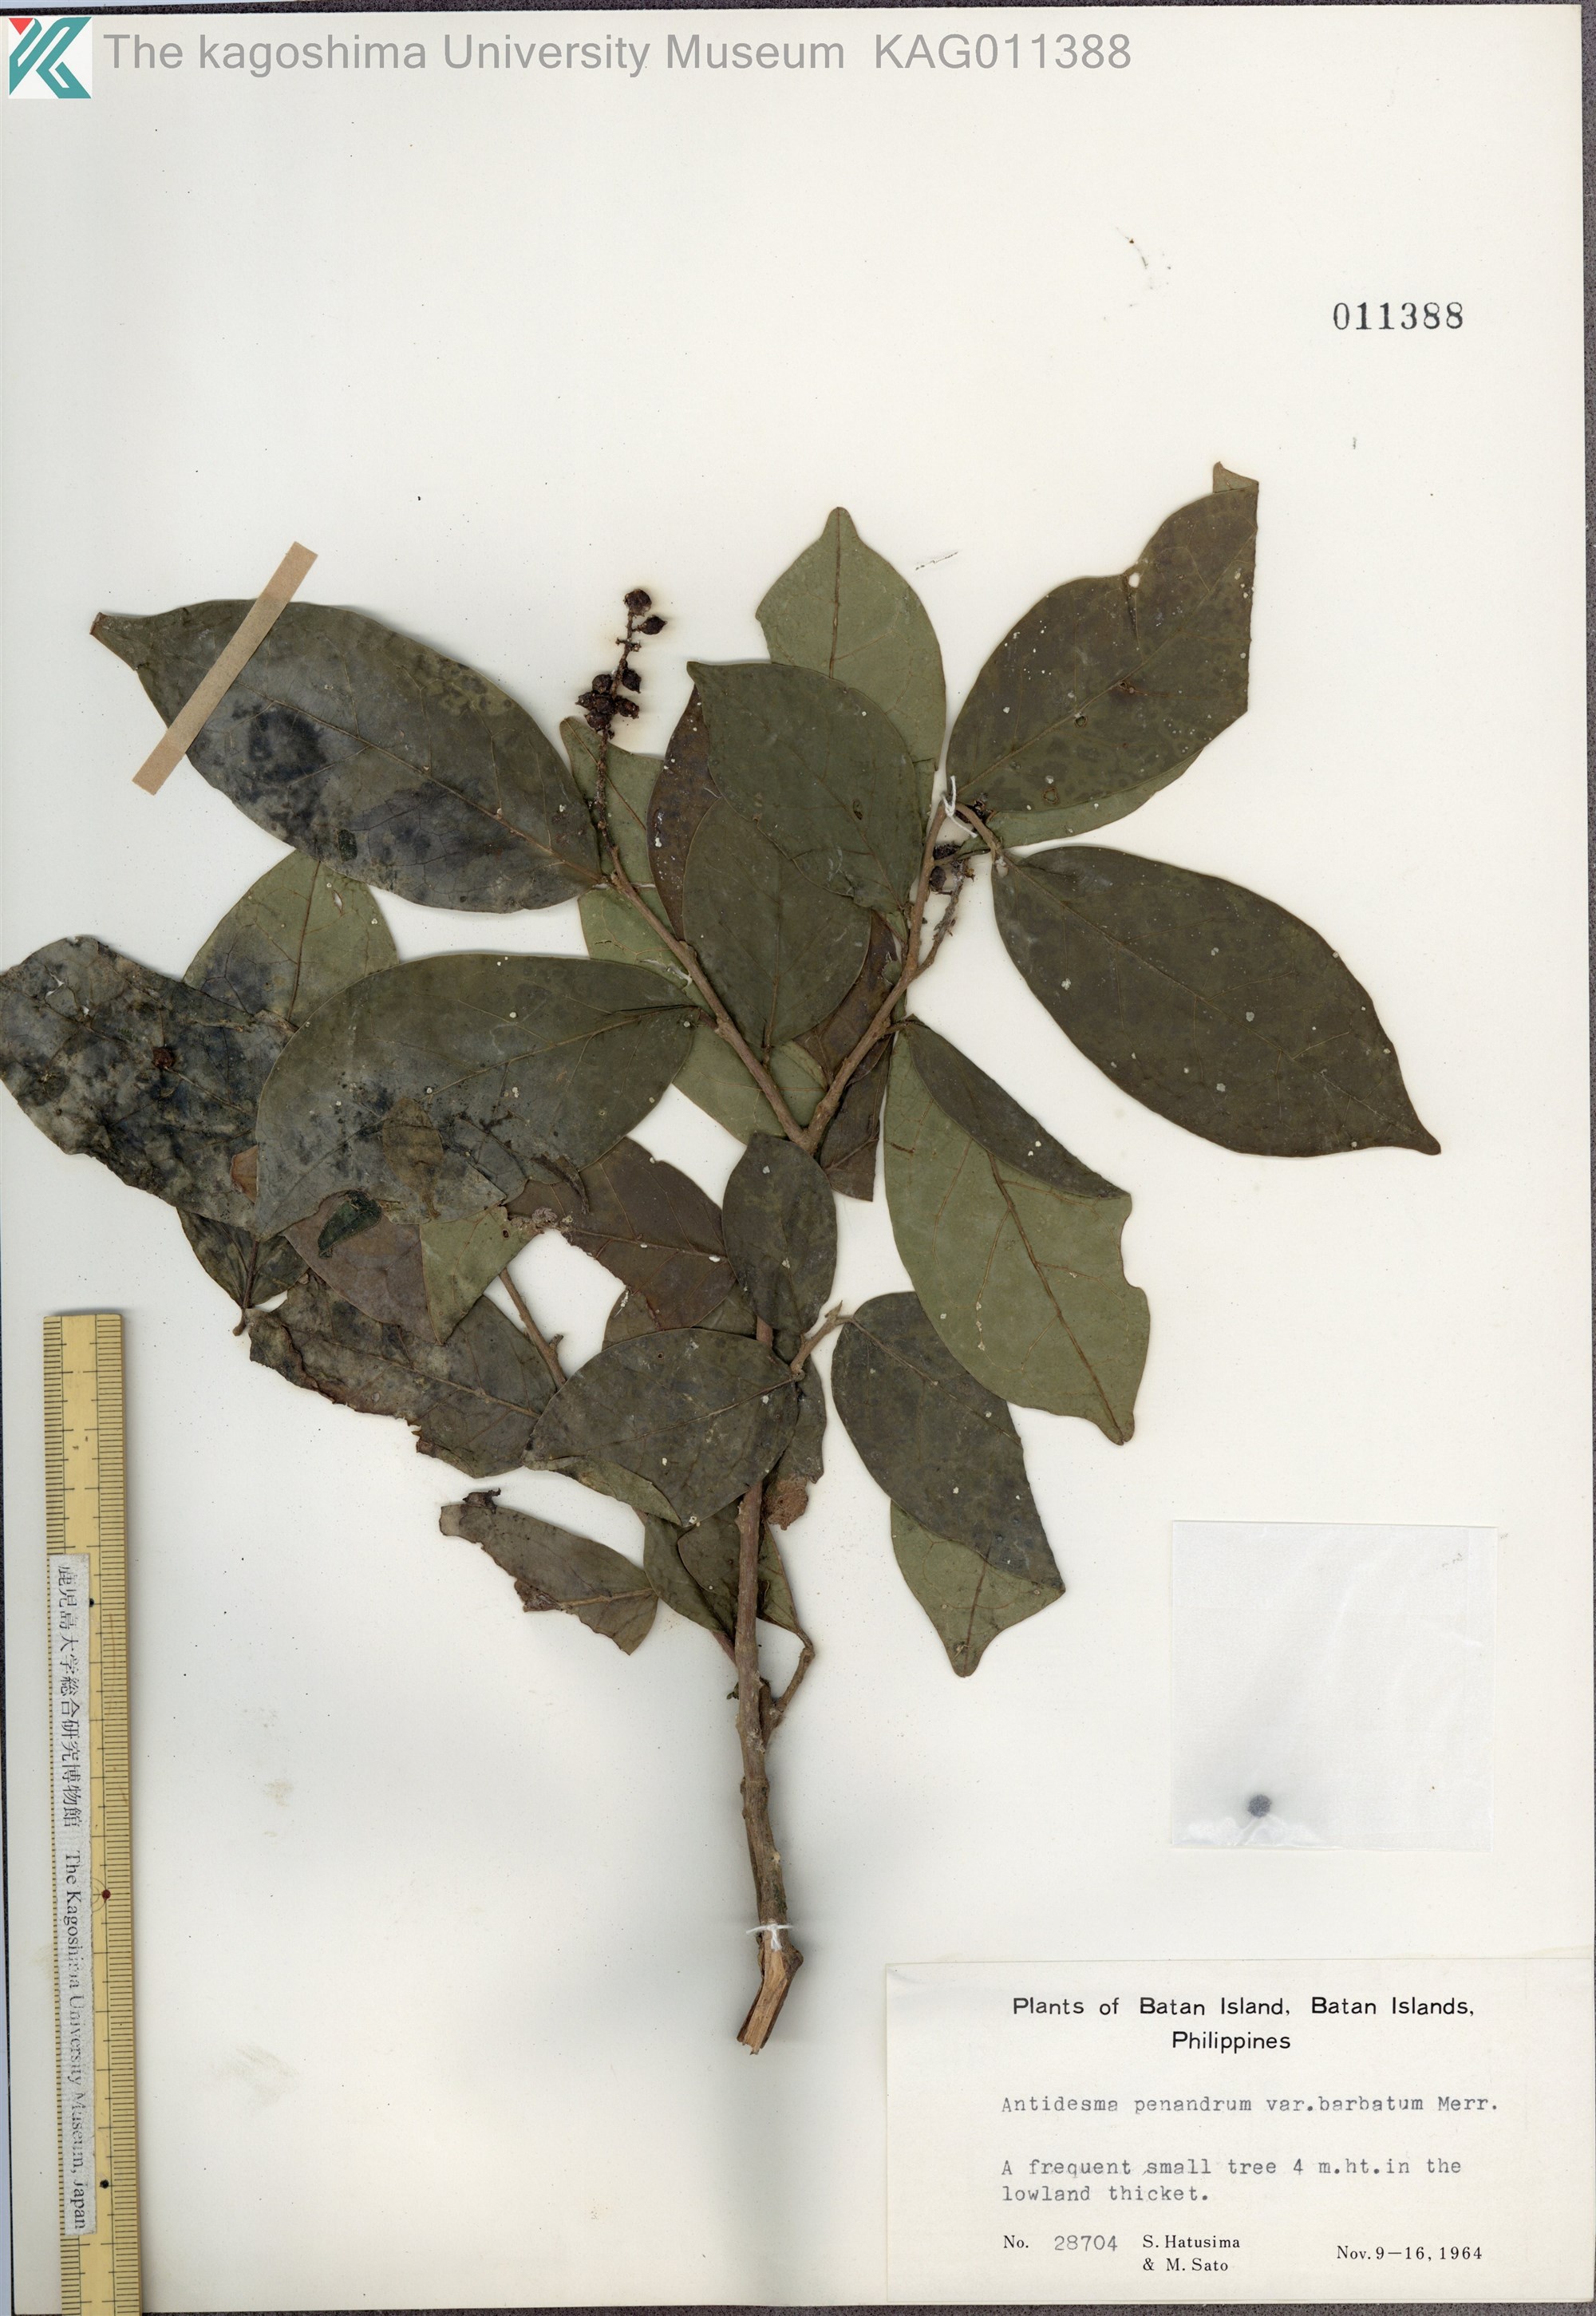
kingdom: Plantae
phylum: Tracheophyta
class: Magnoliopsida
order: Malpighiales
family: Phyllanthaceae
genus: Antidesma
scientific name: Antidesma montanum
